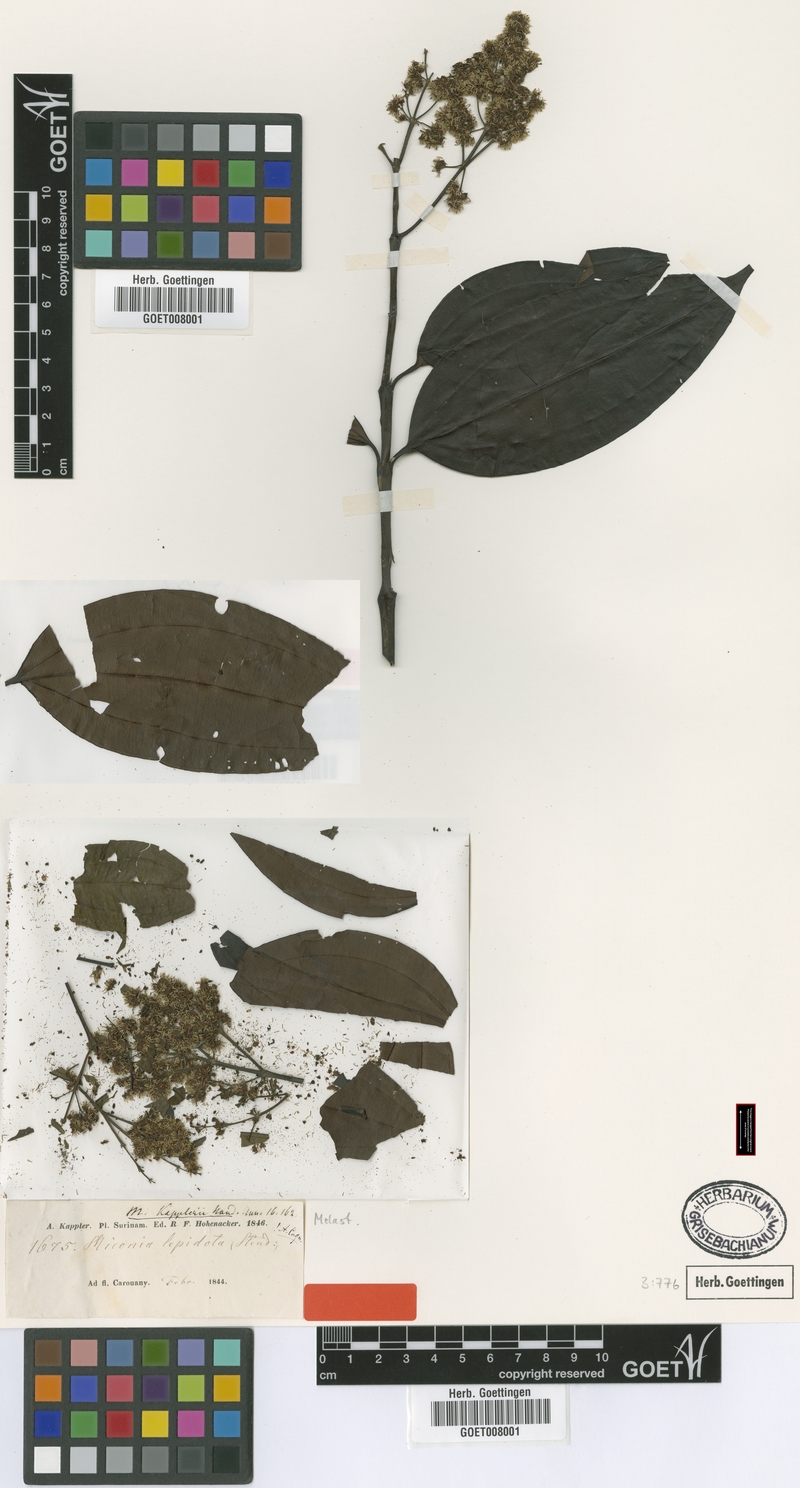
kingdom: Plantae
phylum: Tracheophyta
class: Magnoliopsida
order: Myrtales
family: Melastomataceae
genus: Miconia
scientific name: Miconia kappleri
